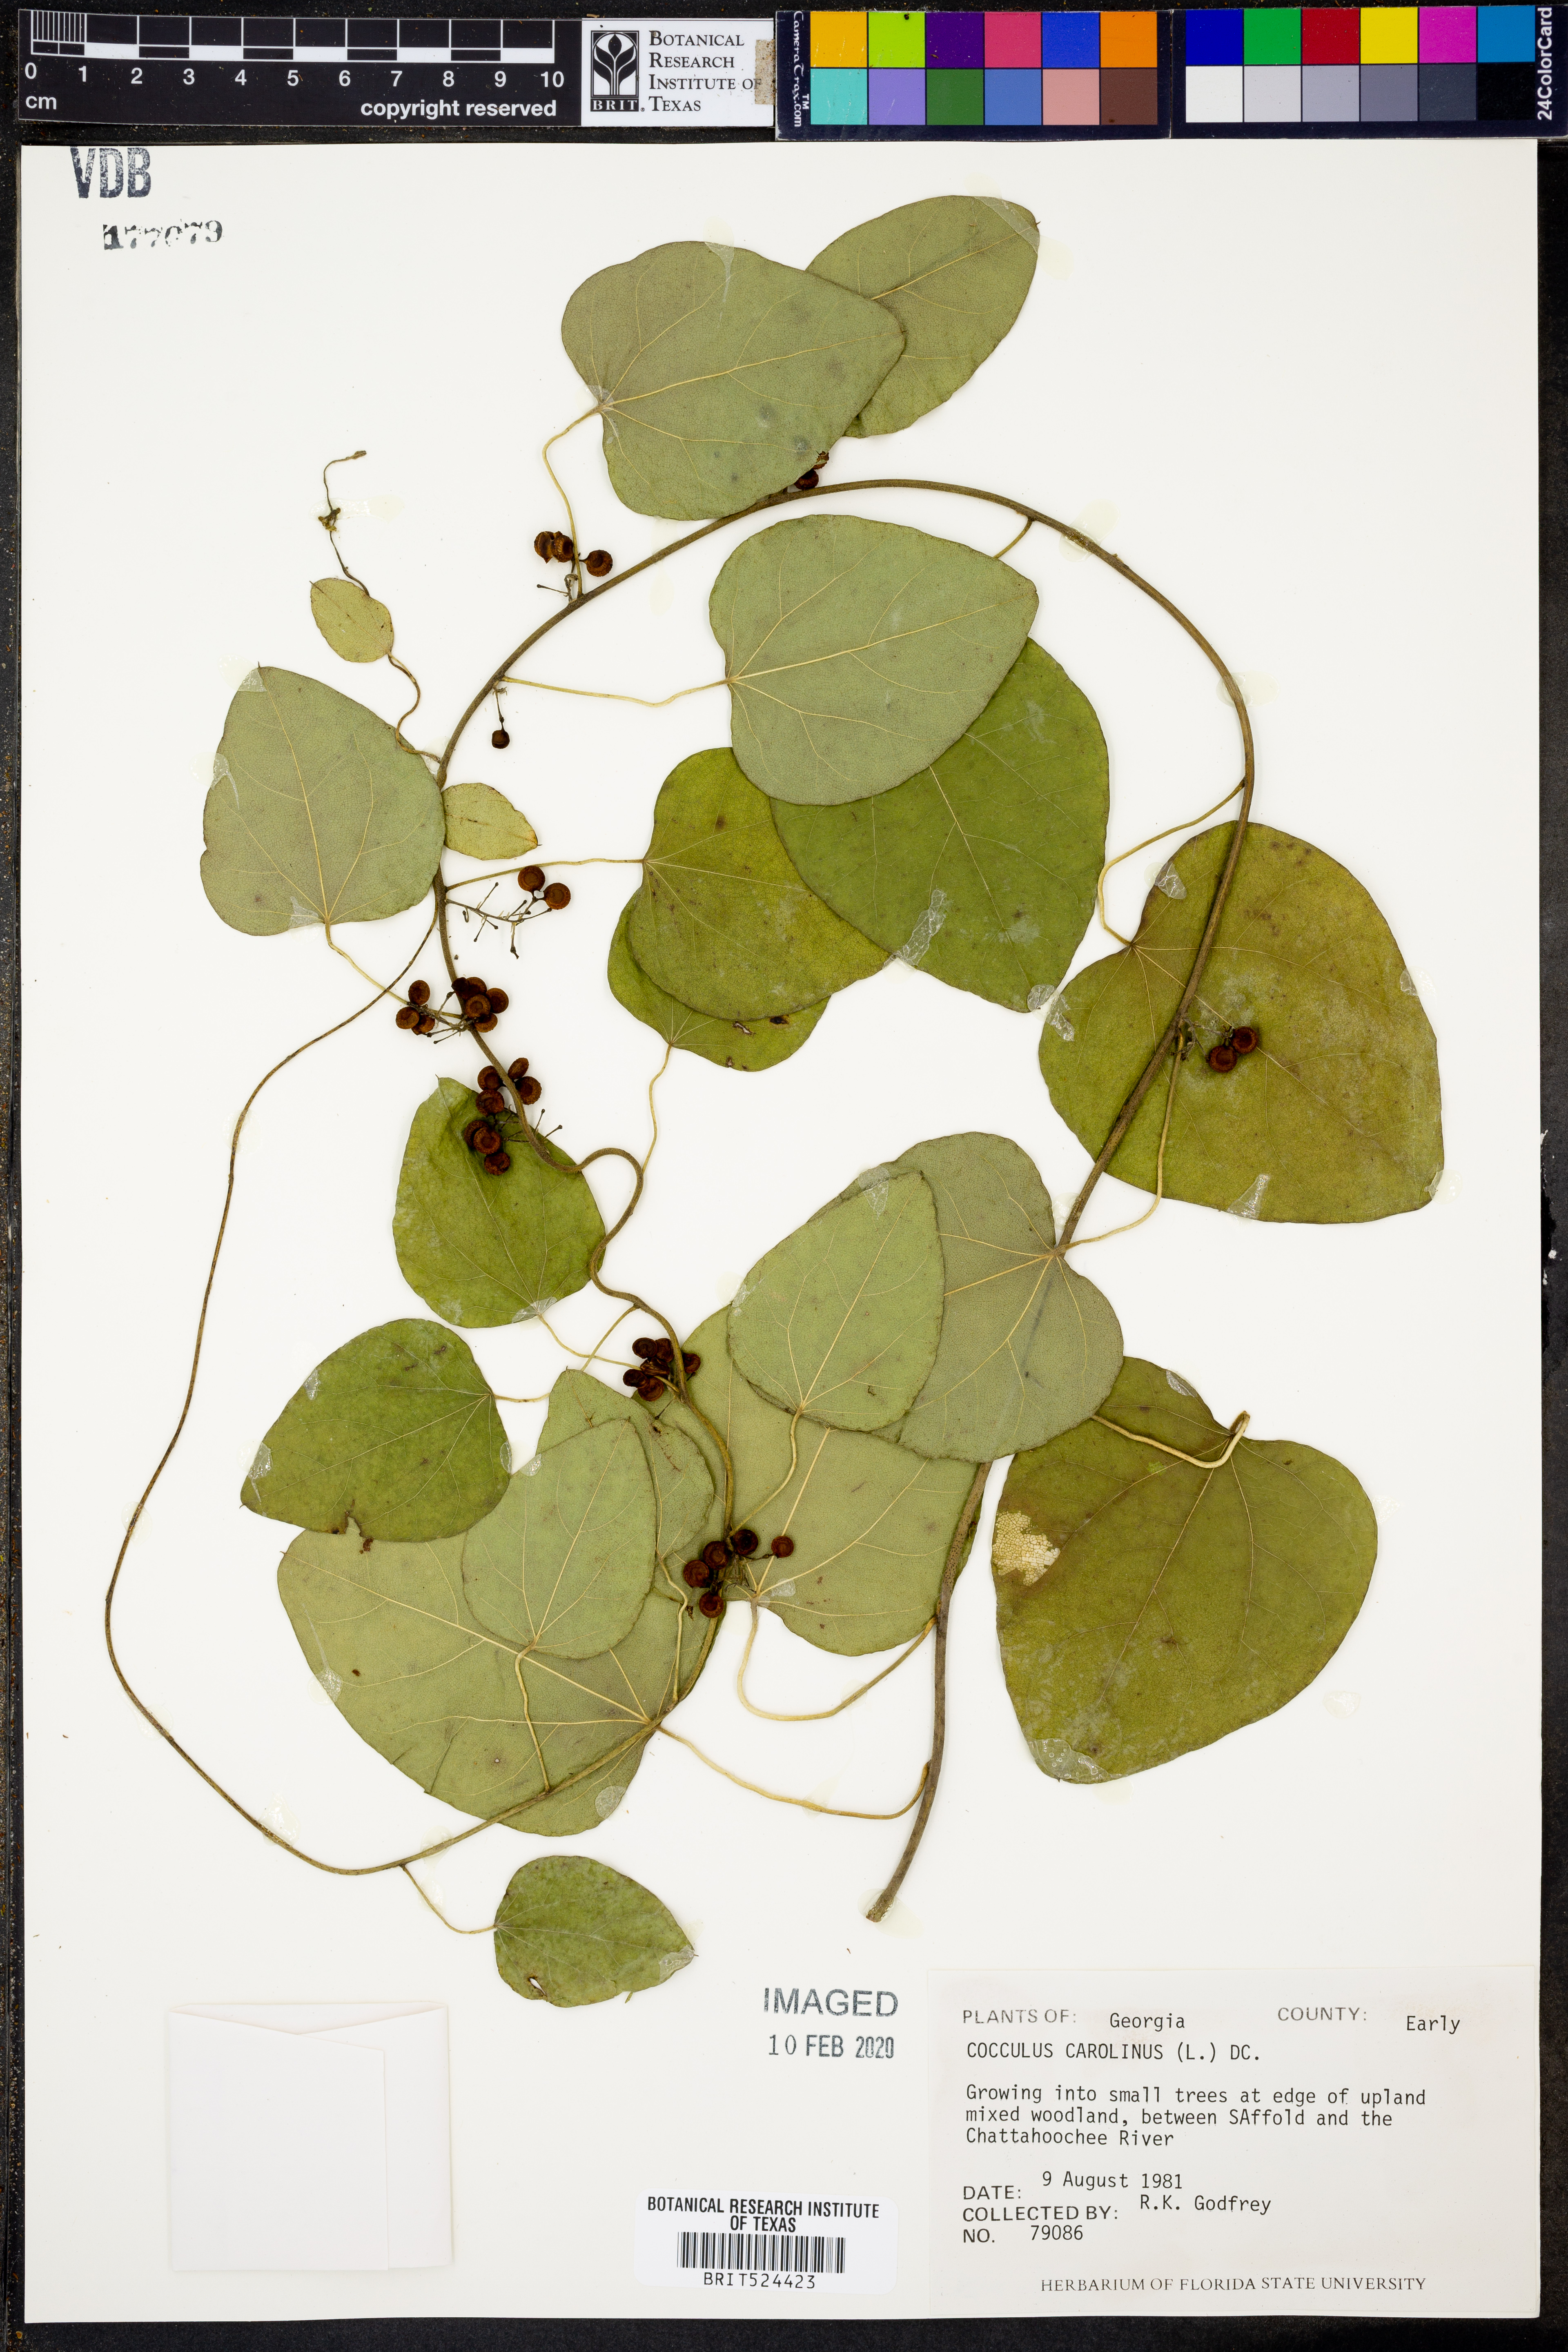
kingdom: Plantae
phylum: Tracheophyta
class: Magnoliopsida
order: Ranunculales
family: Menispermaceae
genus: Cocculus
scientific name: Cocculus carolinus
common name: Carolina moonseed
